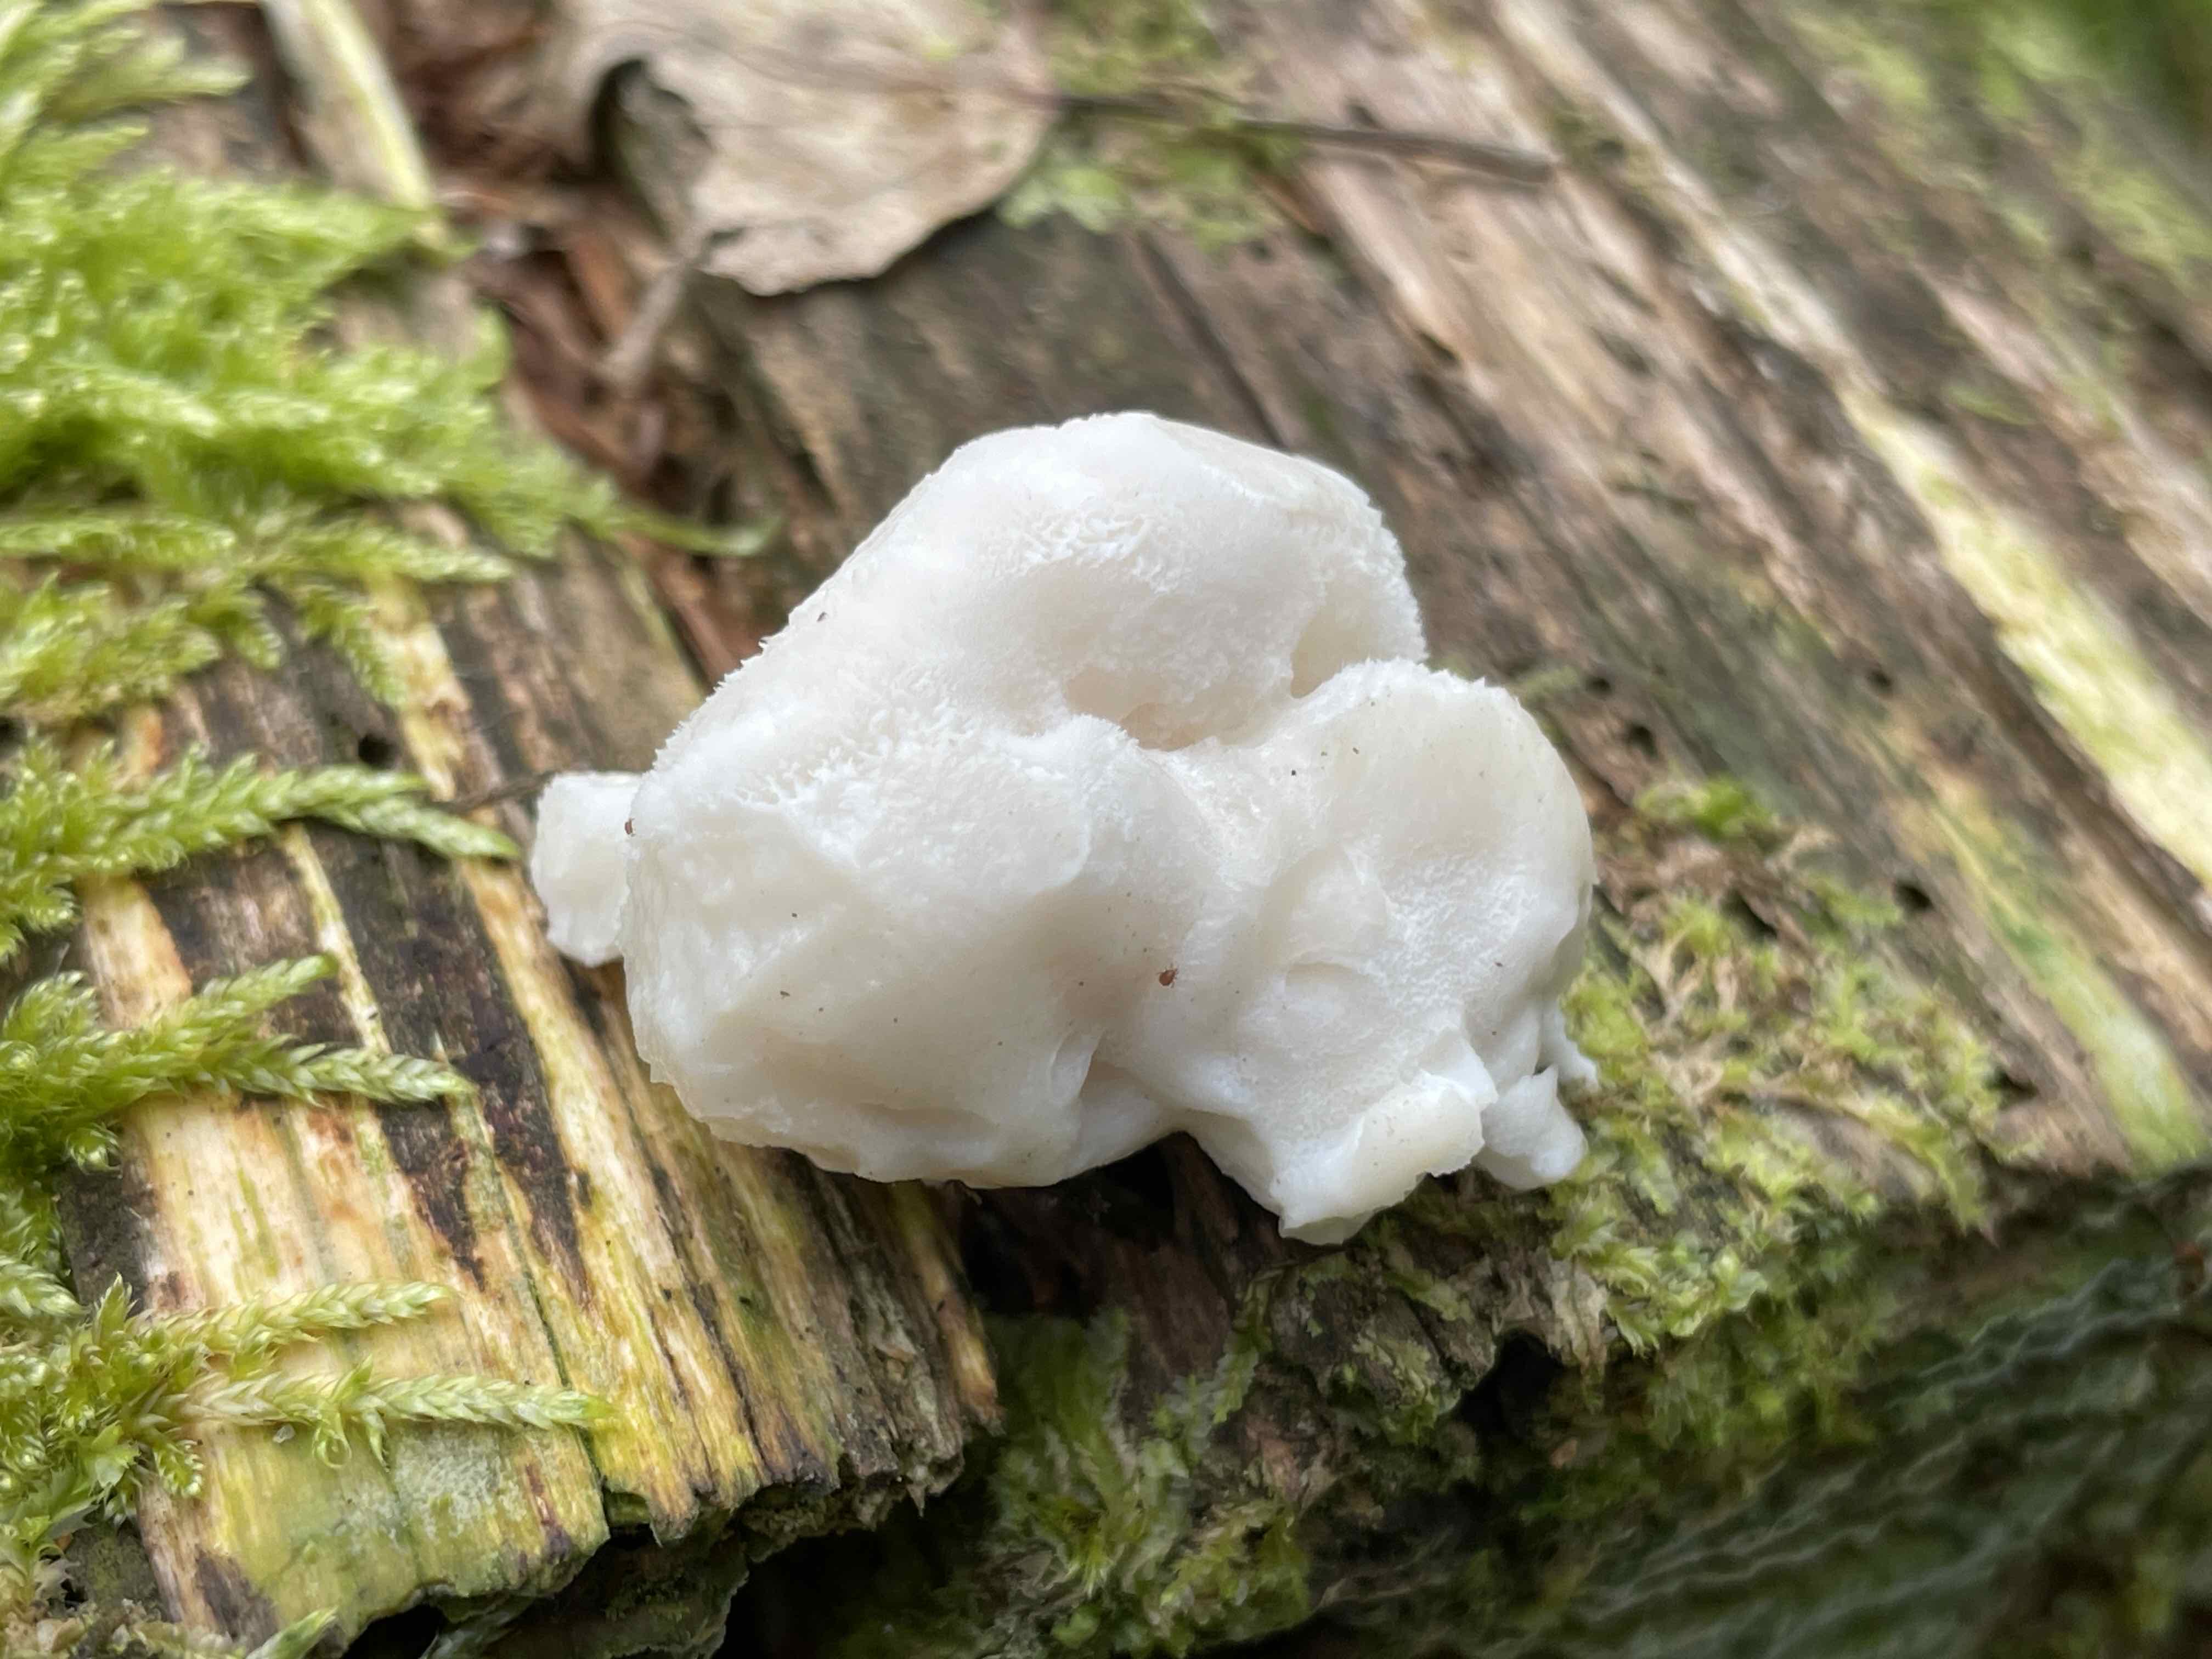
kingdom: Fungi
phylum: Basidiomycota
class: Agaricomycetes
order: Polyporales
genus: Amaropostia
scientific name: Amaropostia stiptica
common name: bitter kødporesvamp
